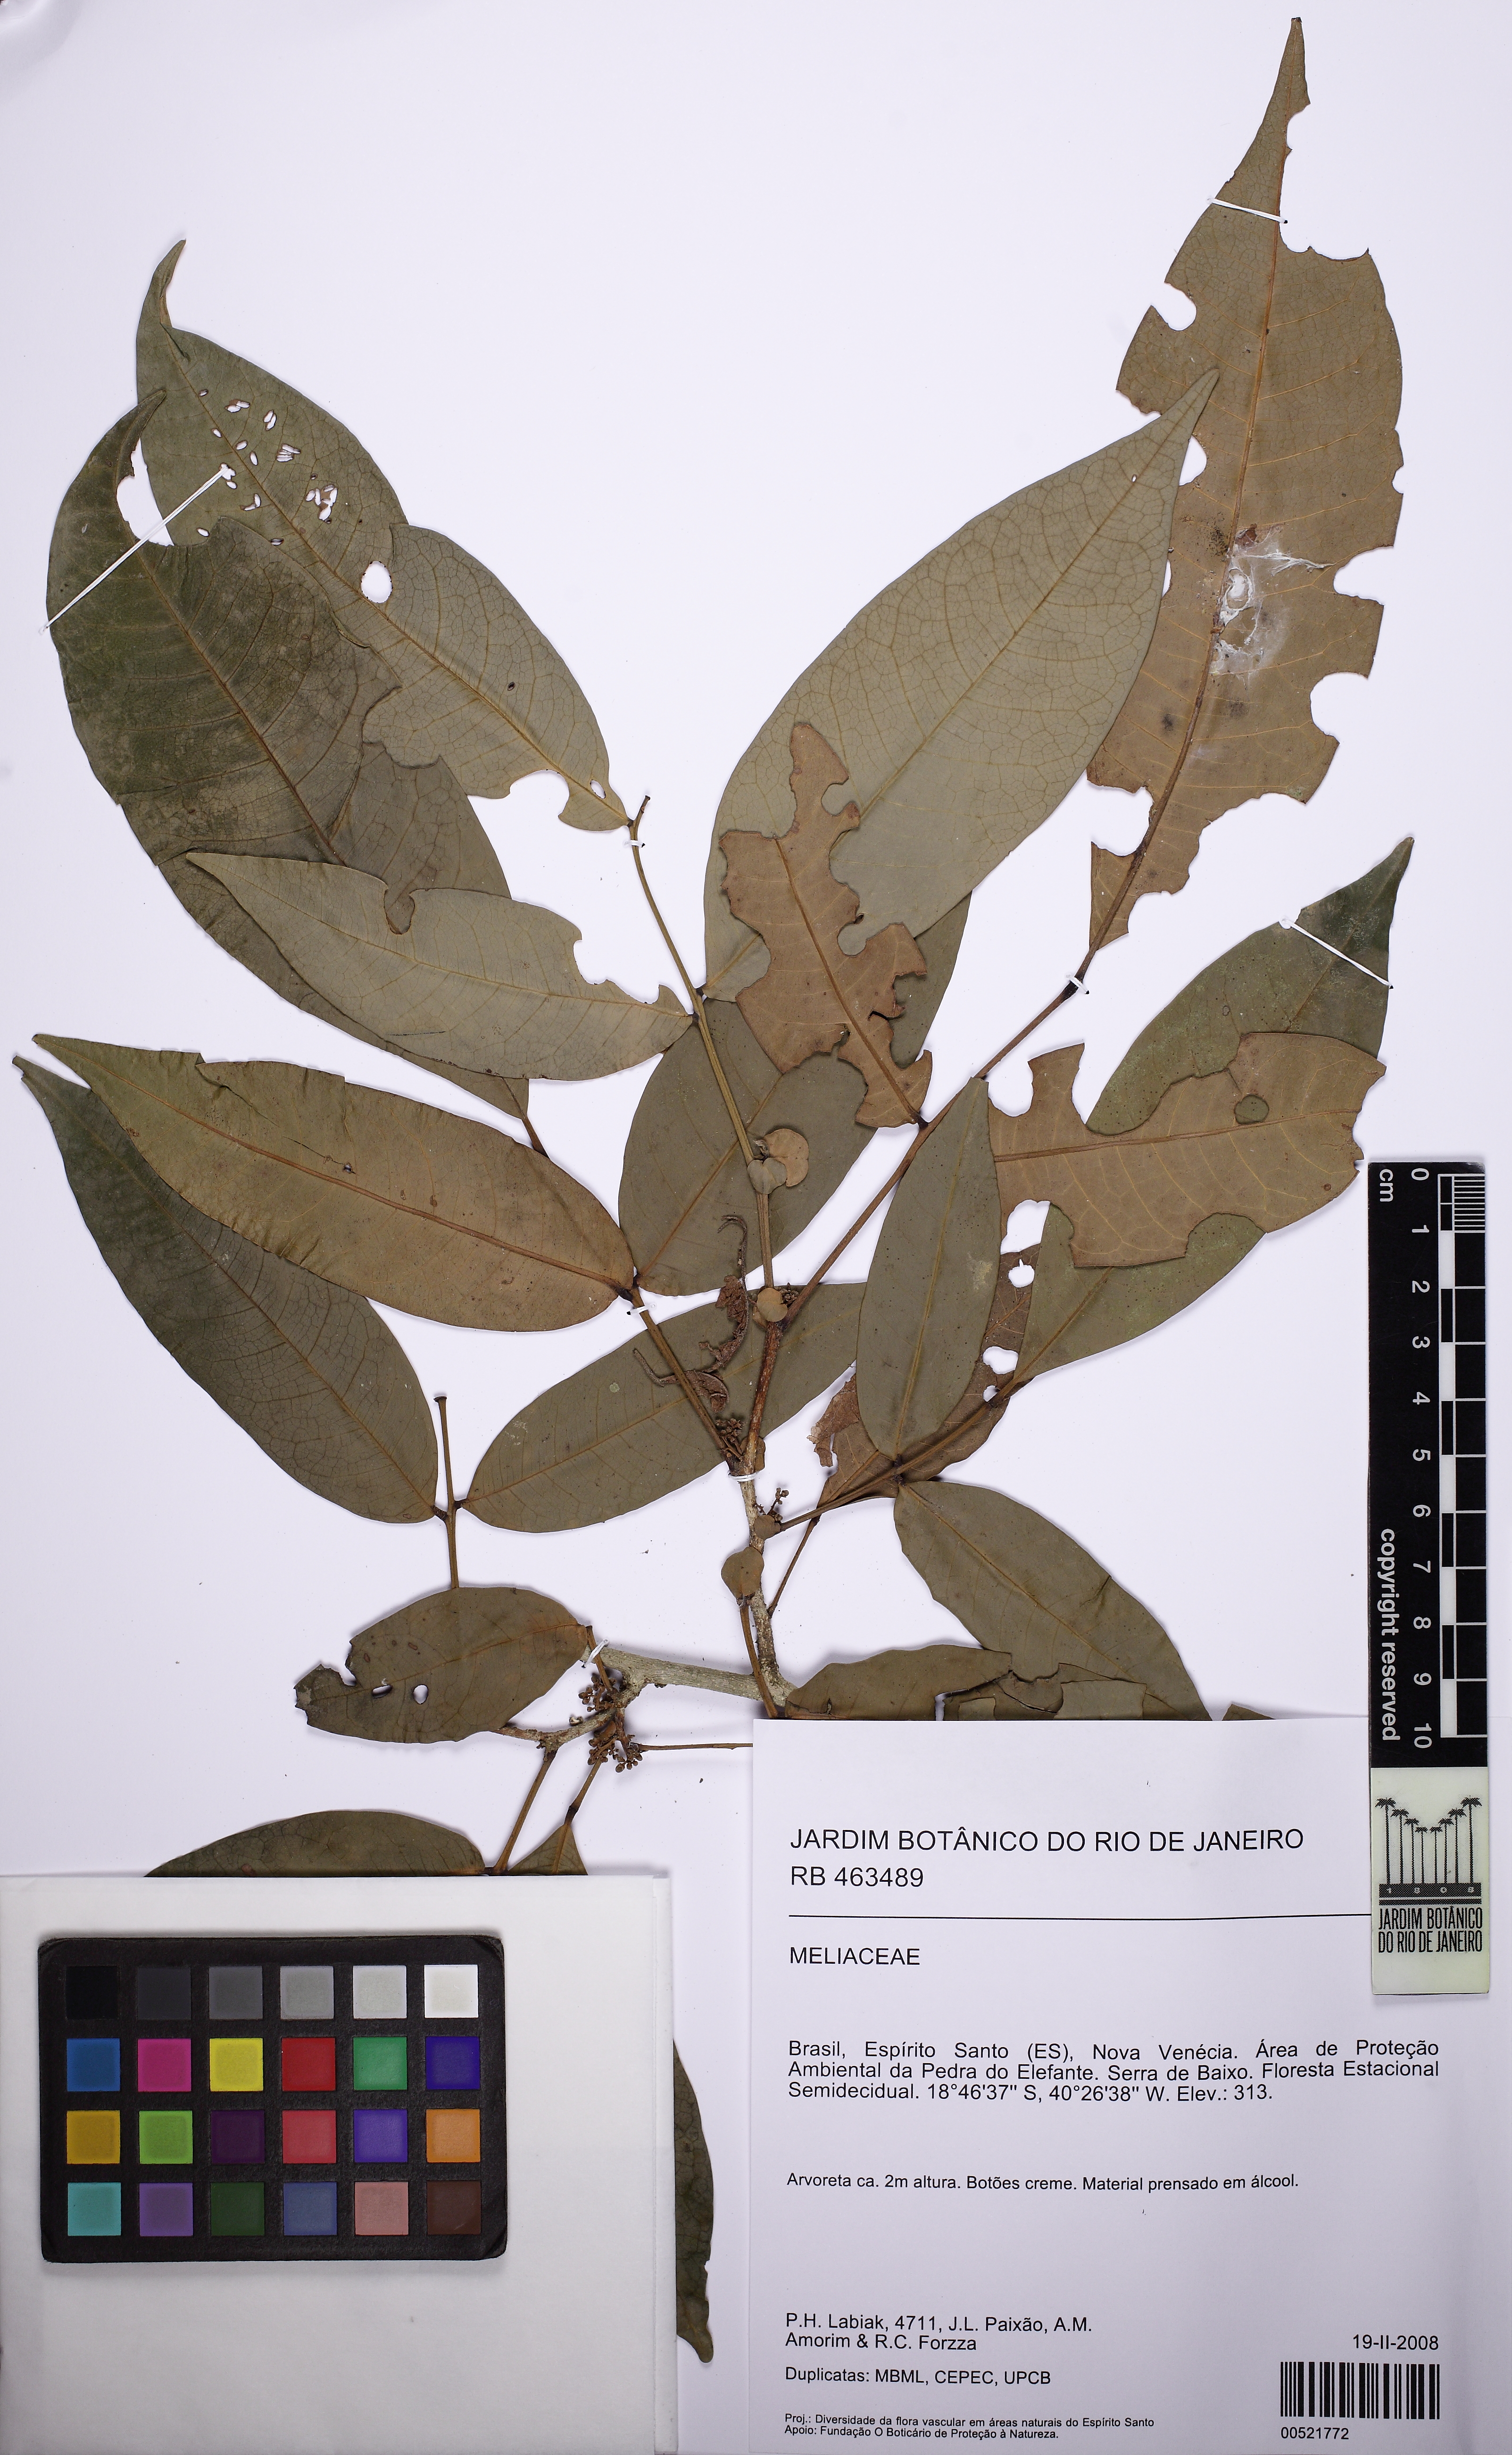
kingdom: Plantae
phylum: Tracheophyta
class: Magnoliopsida
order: Sapindales
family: Meliaceae
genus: Trichilia
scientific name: Trichilia pseudostipularis
